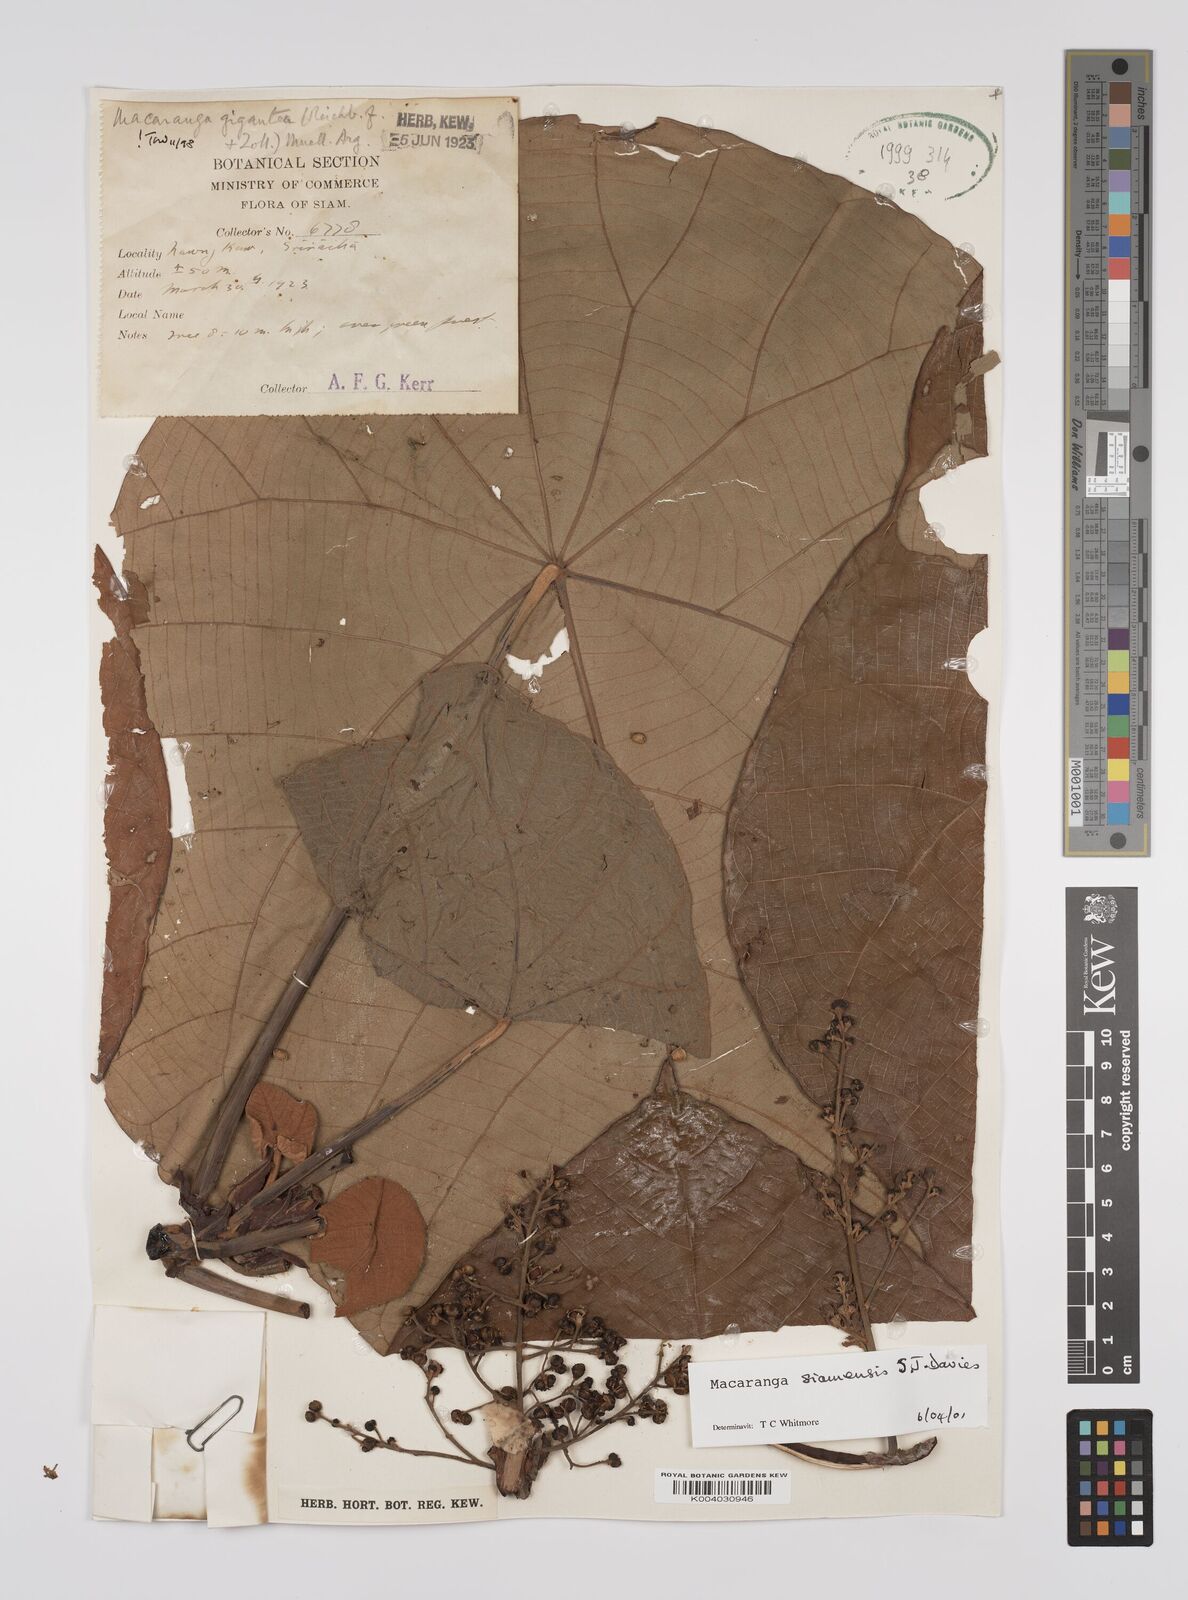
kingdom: Plantae
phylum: Tracheophyta
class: Magnoliopsida
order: Malpighiales
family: Euphorbiaceae
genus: Macaranga
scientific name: Macaranga siamensis
